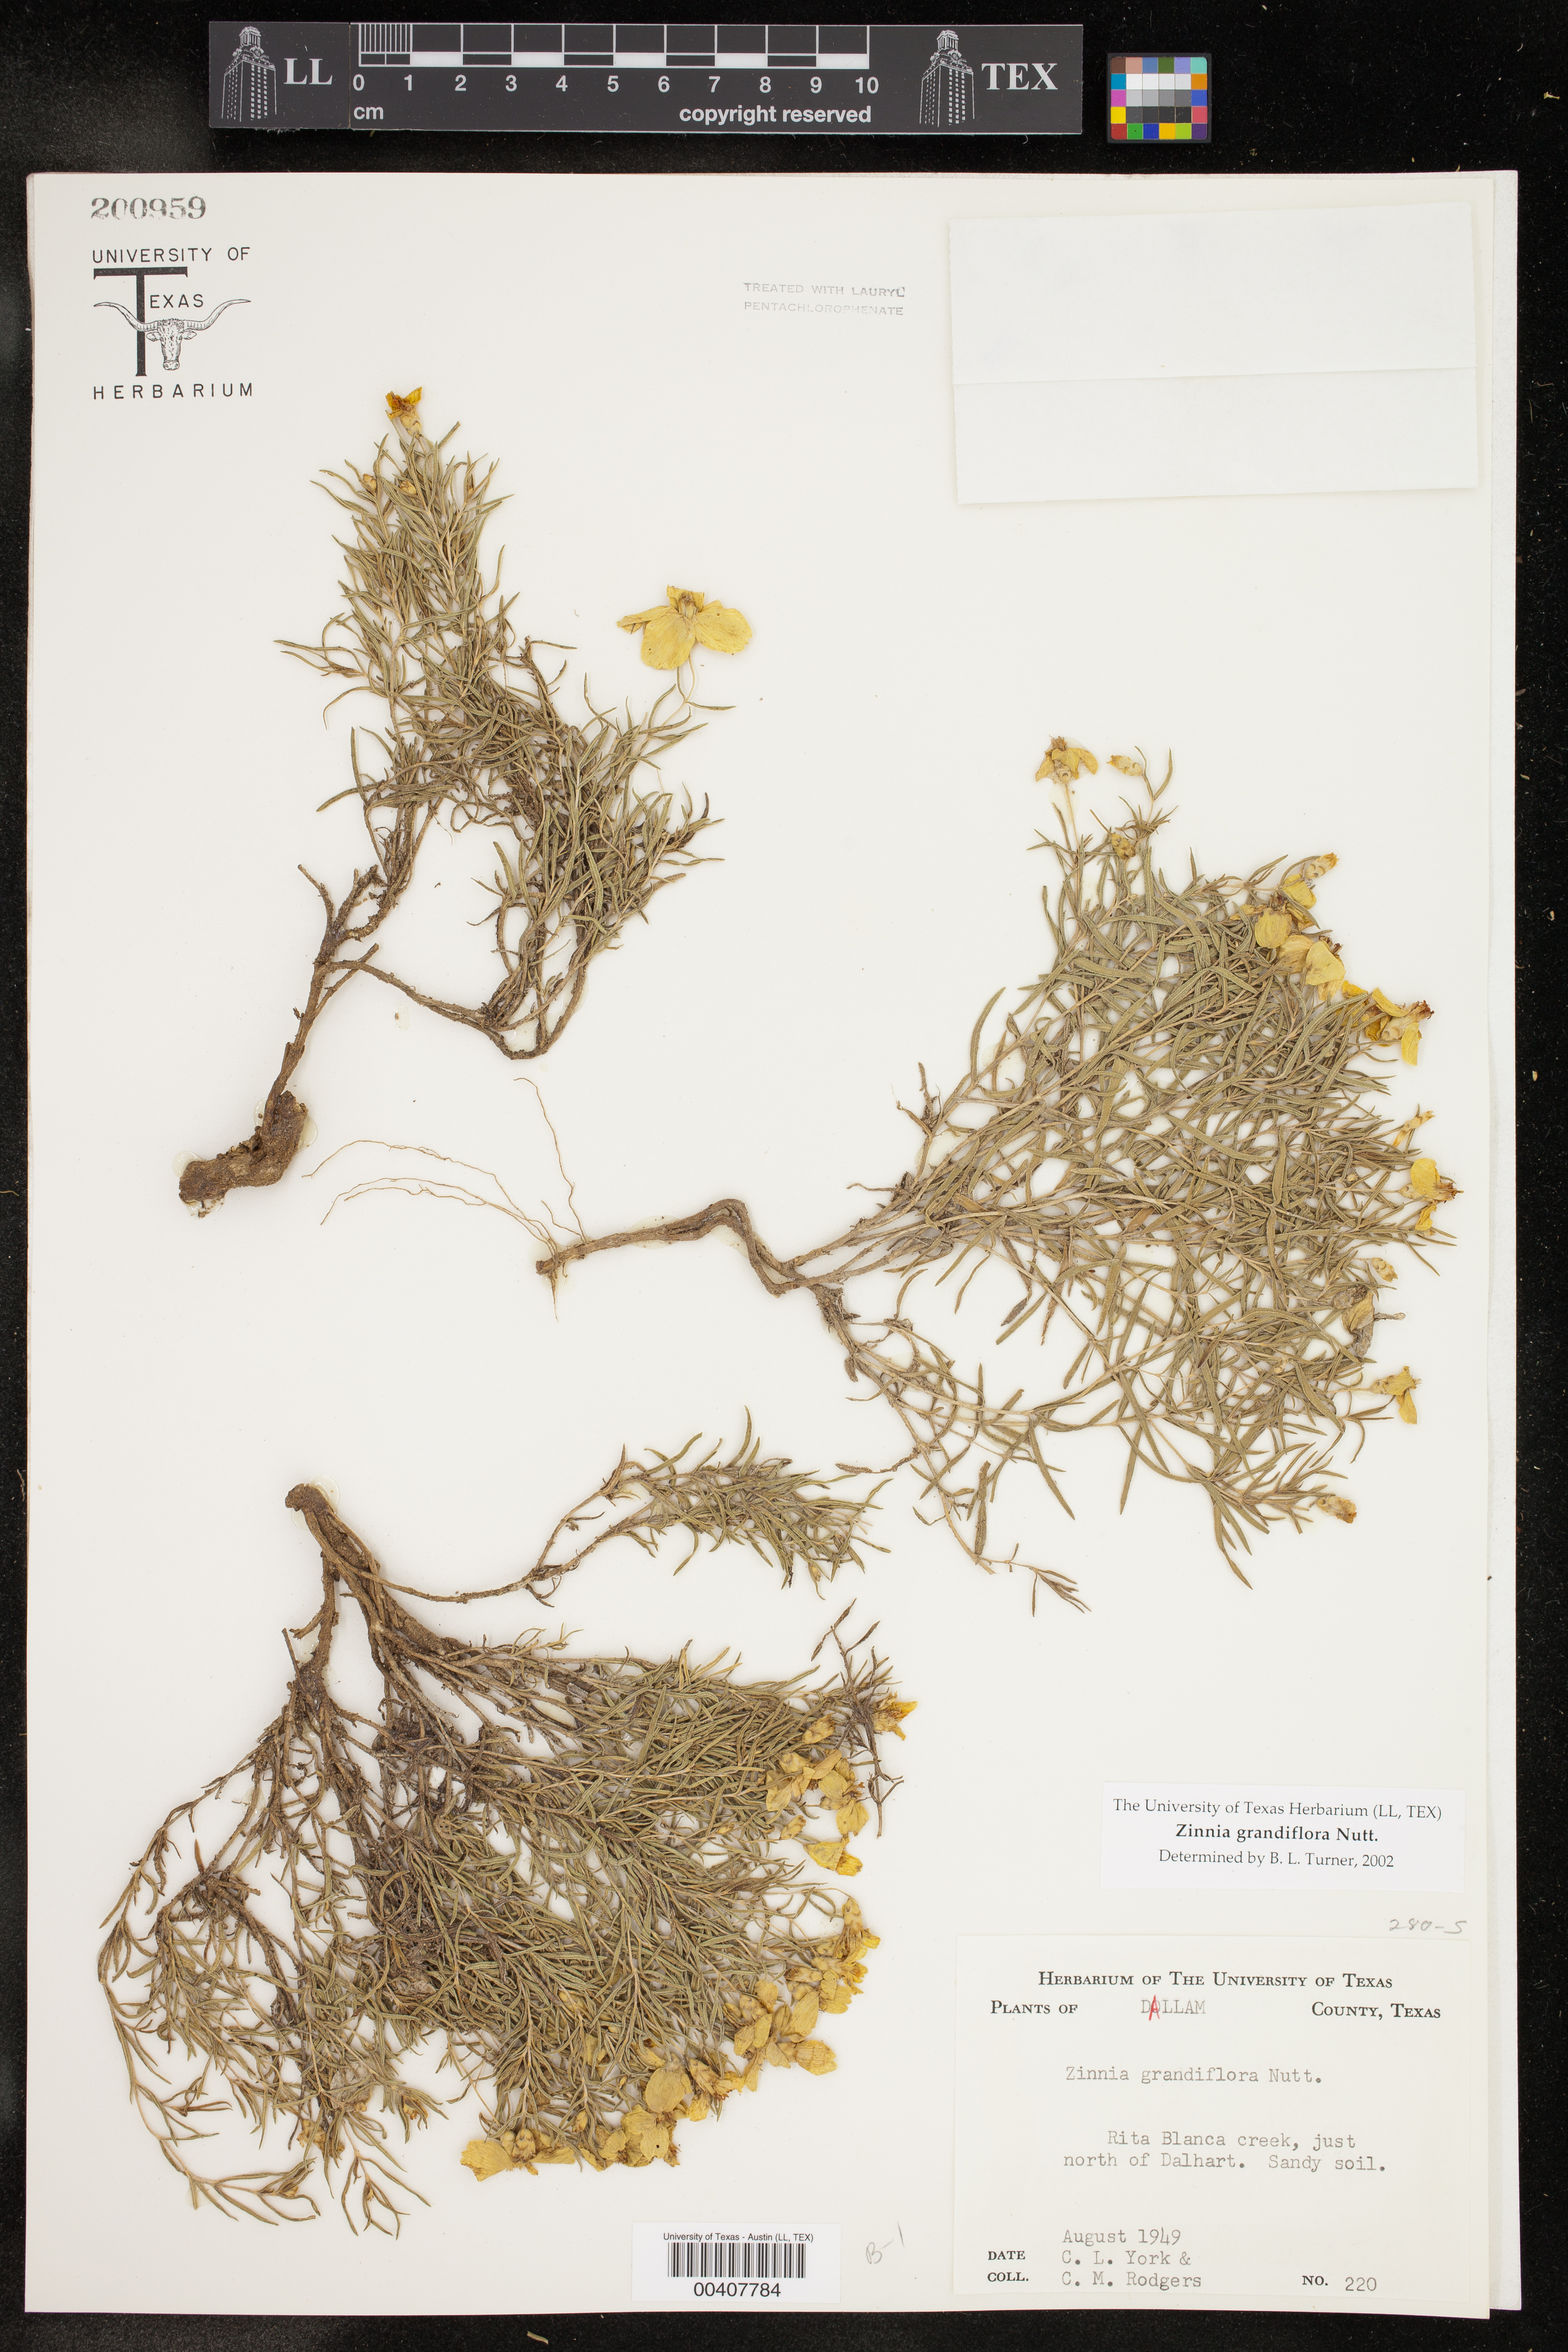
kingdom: Plantae
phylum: Tracheophyta
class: Magnoliopsida
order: Asterales
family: Asteraceae
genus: Zinnia
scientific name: Zinnia grandiflora
